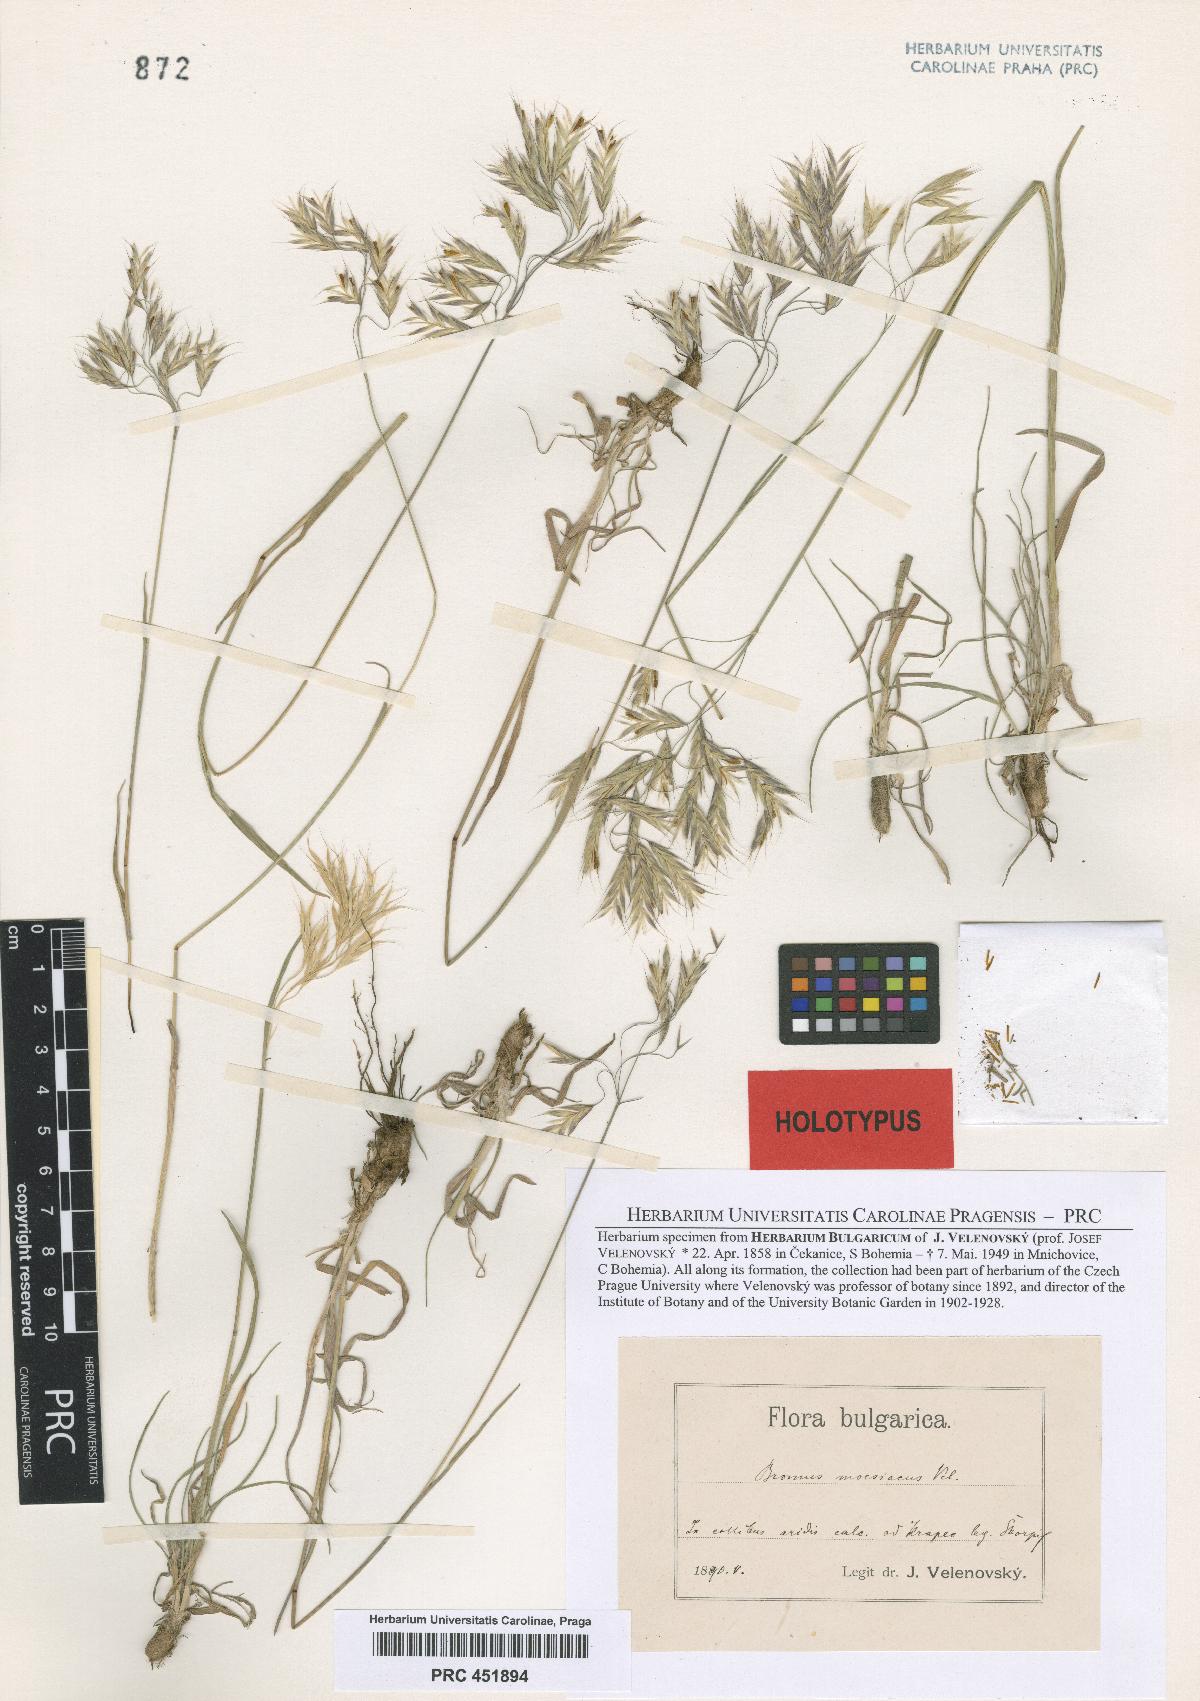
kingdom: Plantae
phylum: Tracheophyta
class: Liliopsida
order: Poales
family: Poaceae
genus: Bromus
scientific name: Bromus moesiacus
